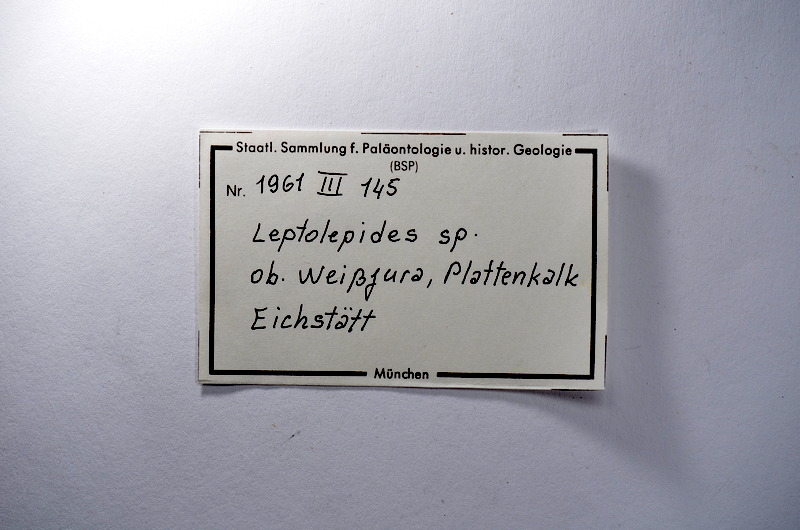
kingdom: Animalia
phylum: Chordata
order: Salmoniformes
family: Orthogonikleithridae
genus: Leptolepides
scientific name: Leptolepides
